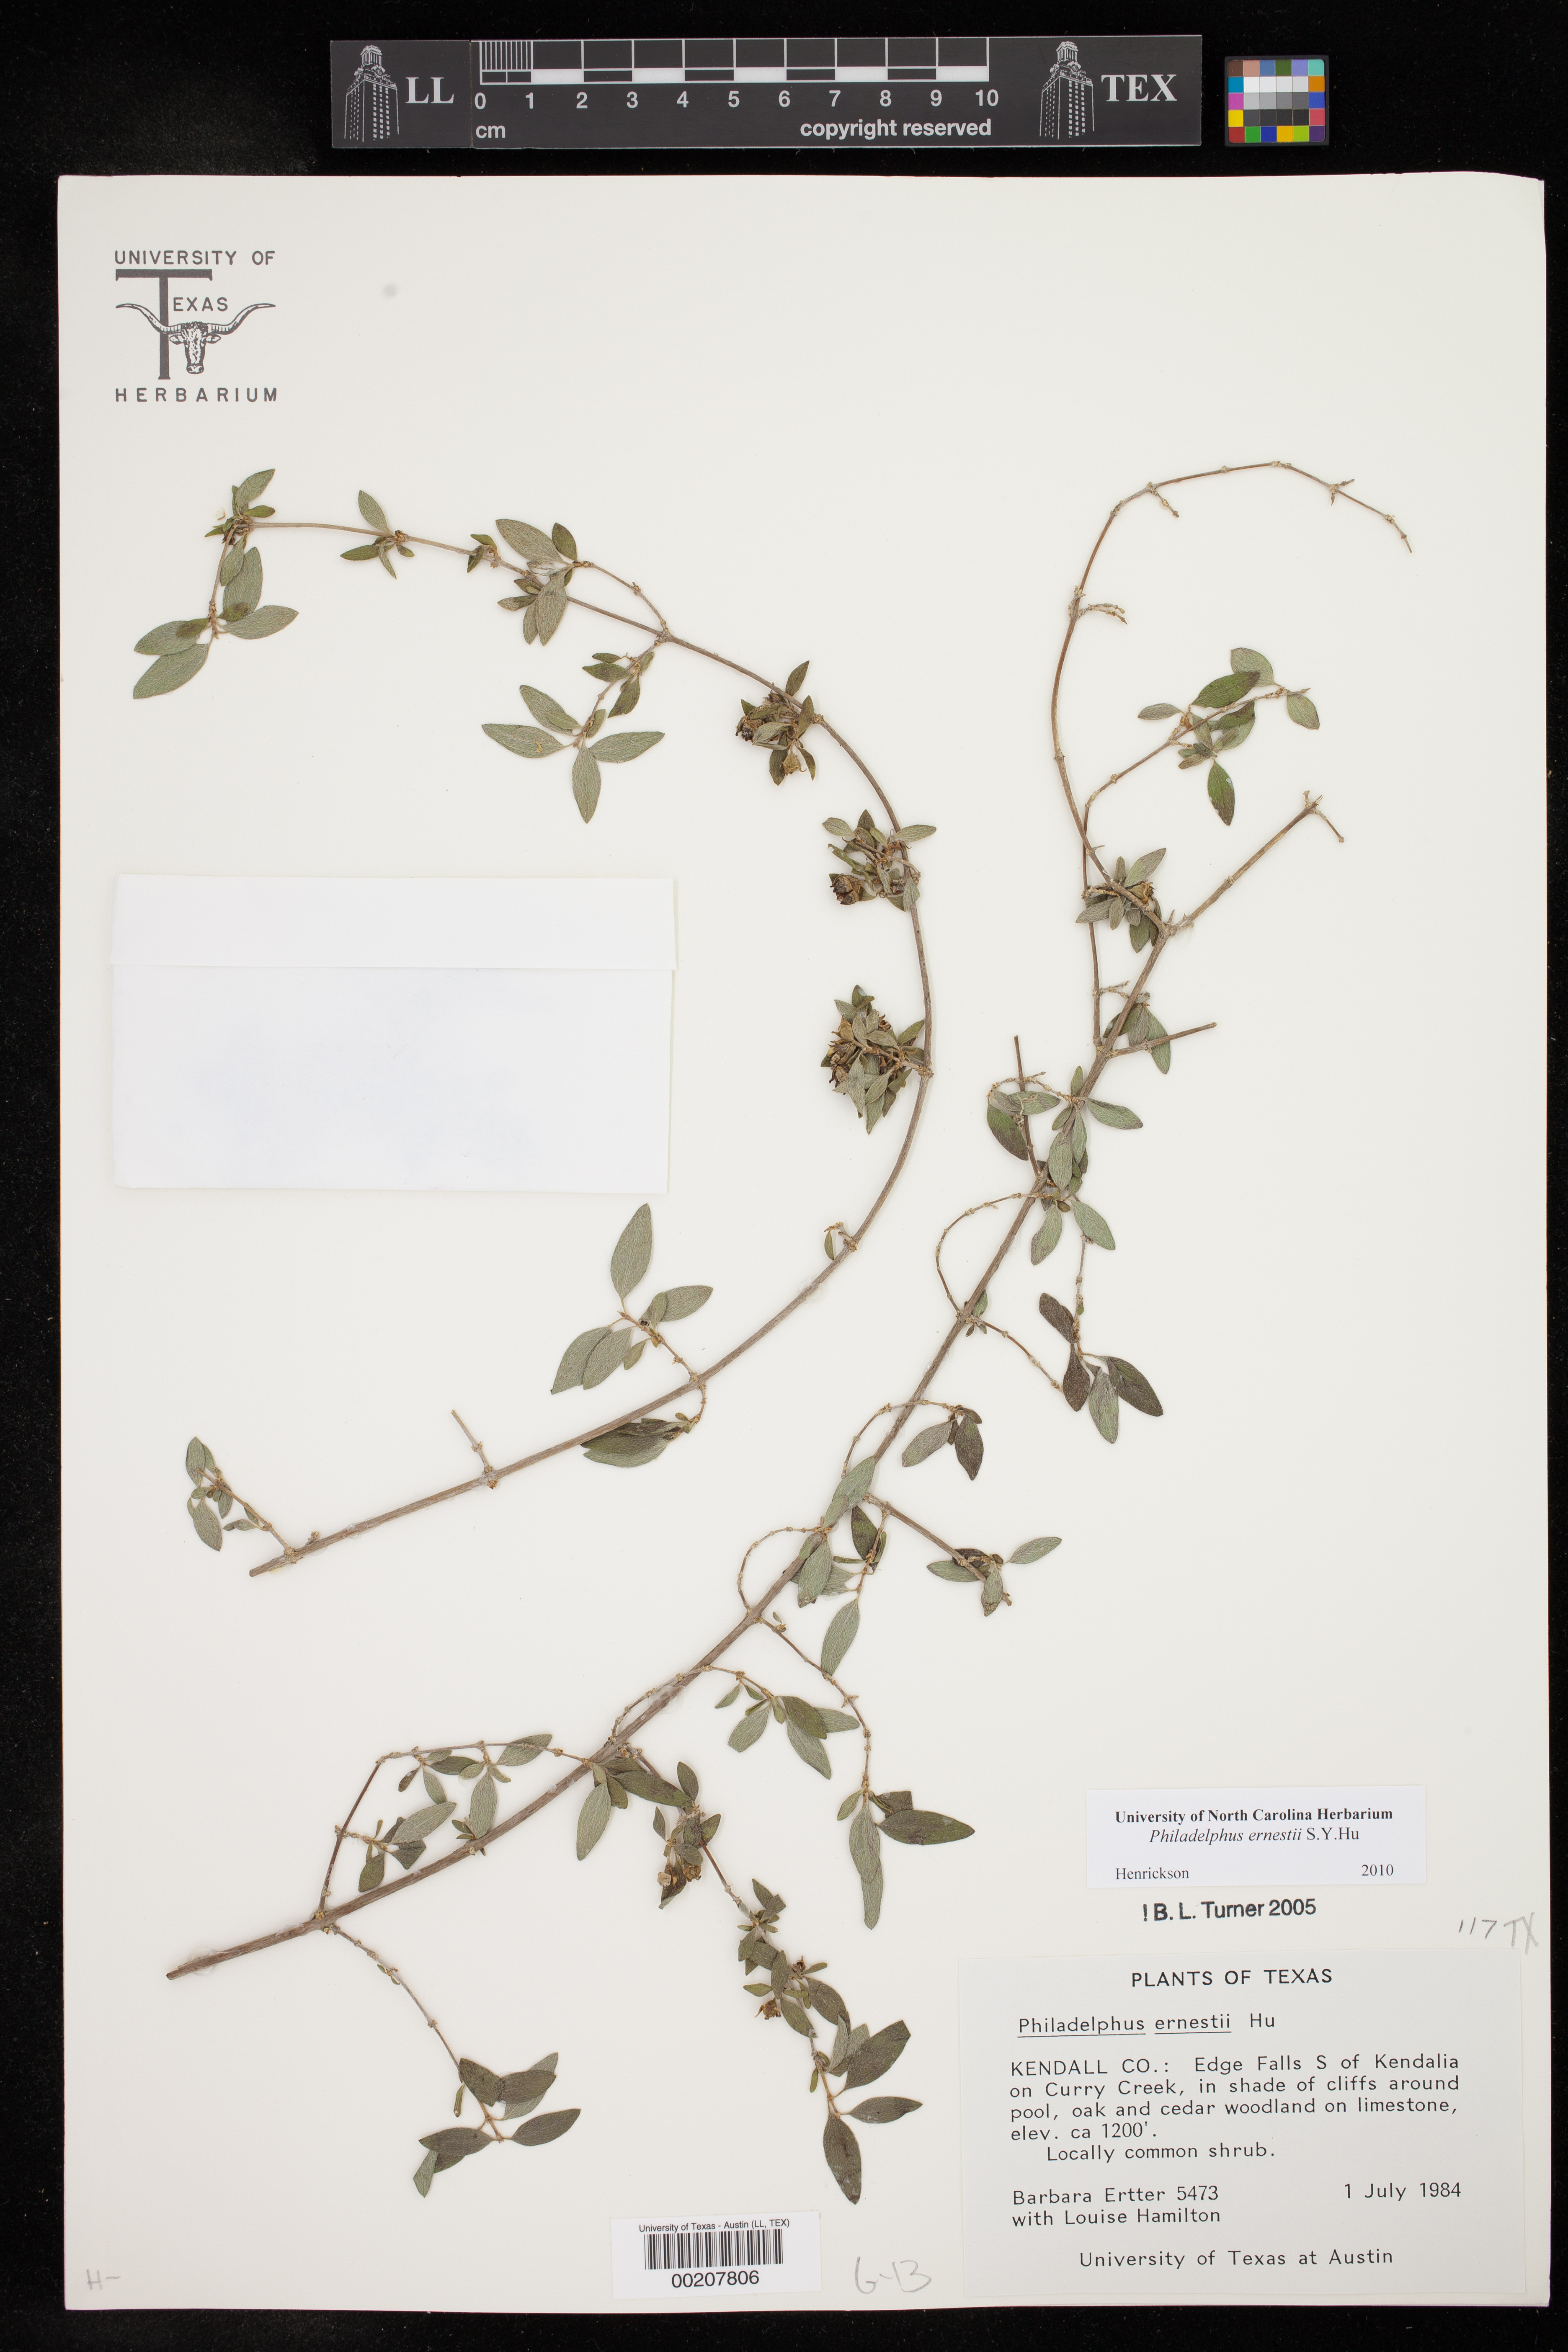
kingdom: Plantae
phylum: Tracheophyta
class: Magnoliopsida
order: Cornales
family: Hydrangeaceae
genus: Philadelphus
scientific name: Philadelphus texensis
